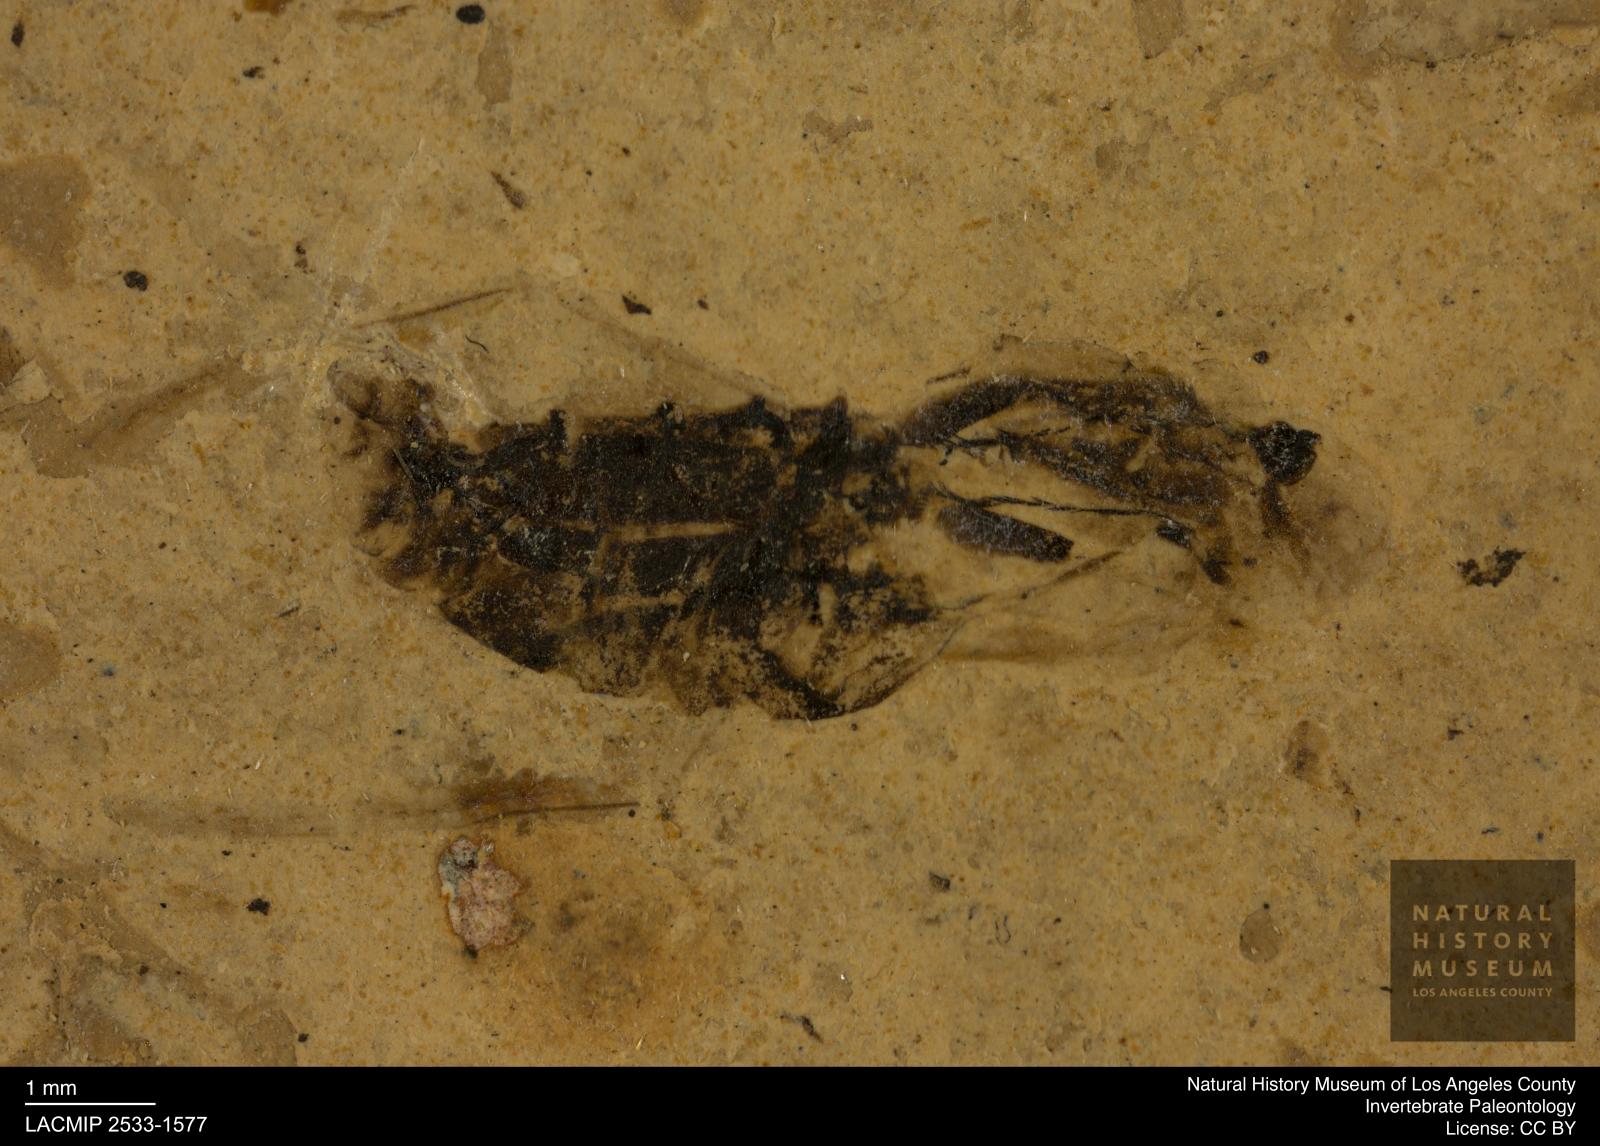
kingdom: Animalia
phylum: Arthropoda
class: Insecta
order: Hemiptera
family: Notonectidae
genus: Notonecta
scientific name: Notonecta
